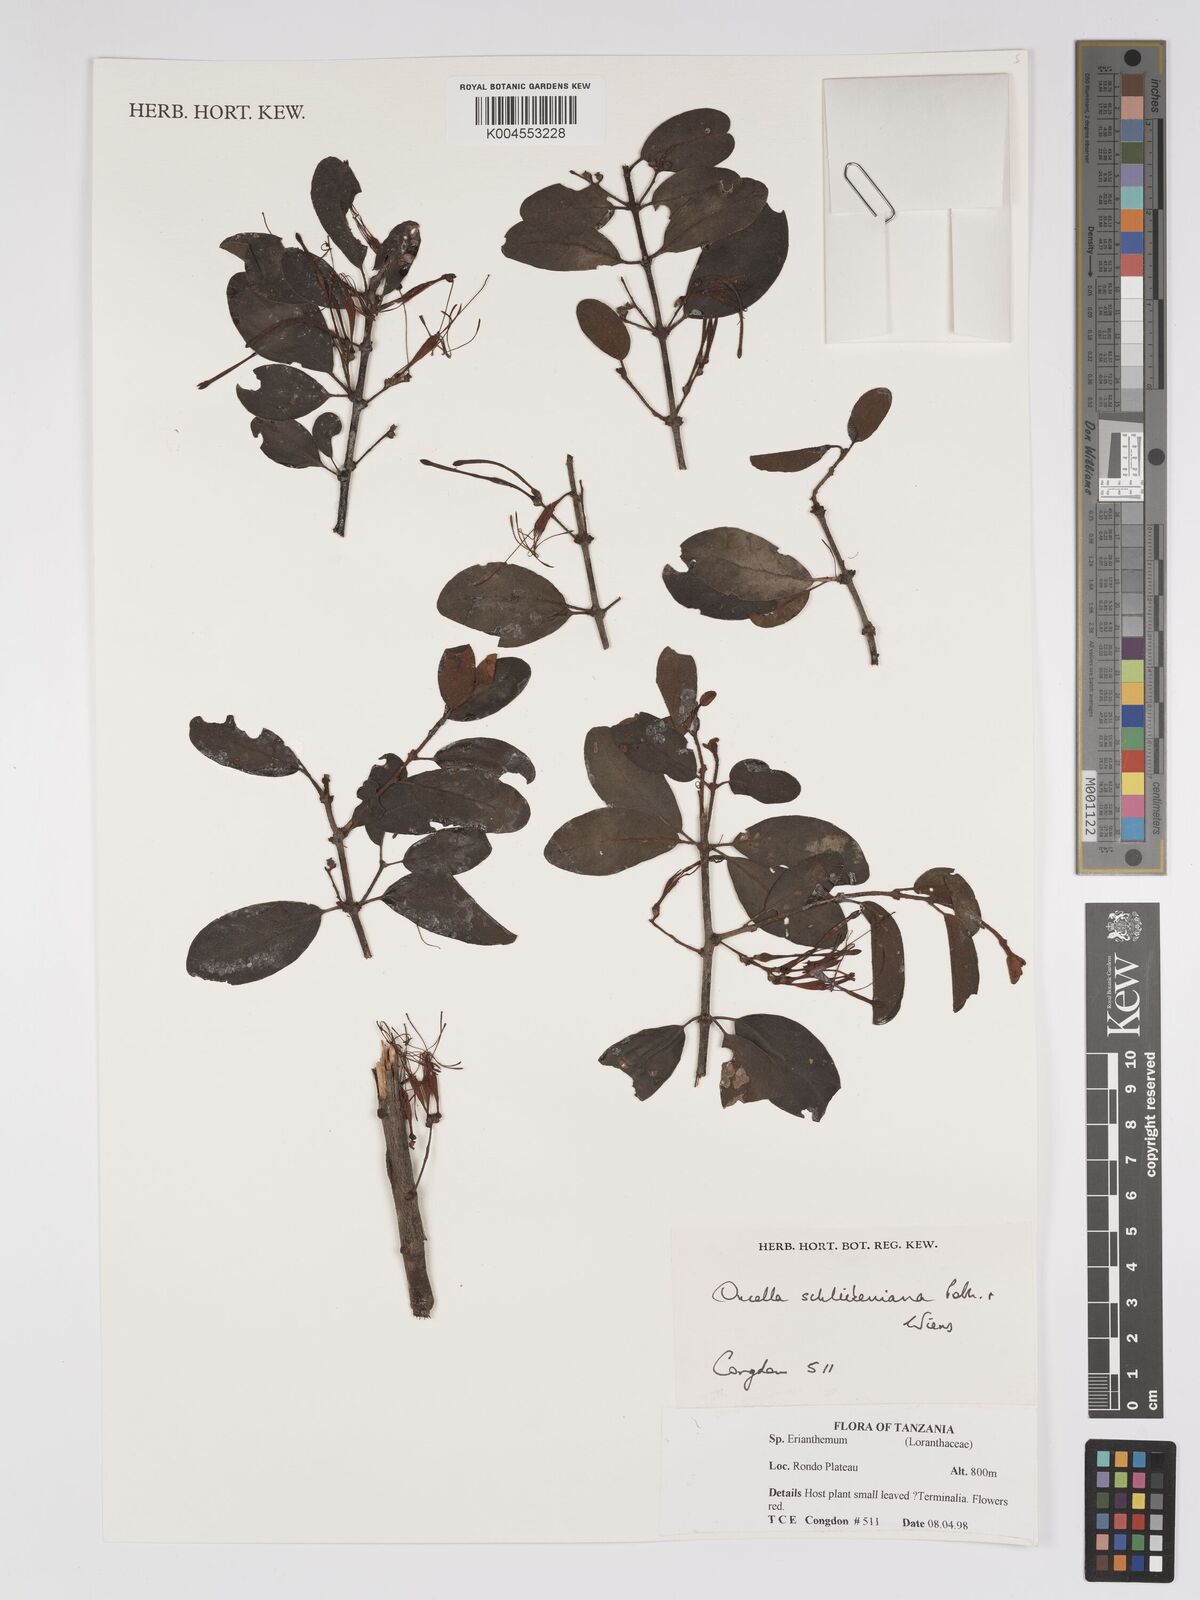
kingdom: Plantae
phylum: Tracheophyta
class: Magnoliopsida
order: Santalales
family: Loranthaceae
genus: Oncella
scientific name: Oncella schliebeniana
